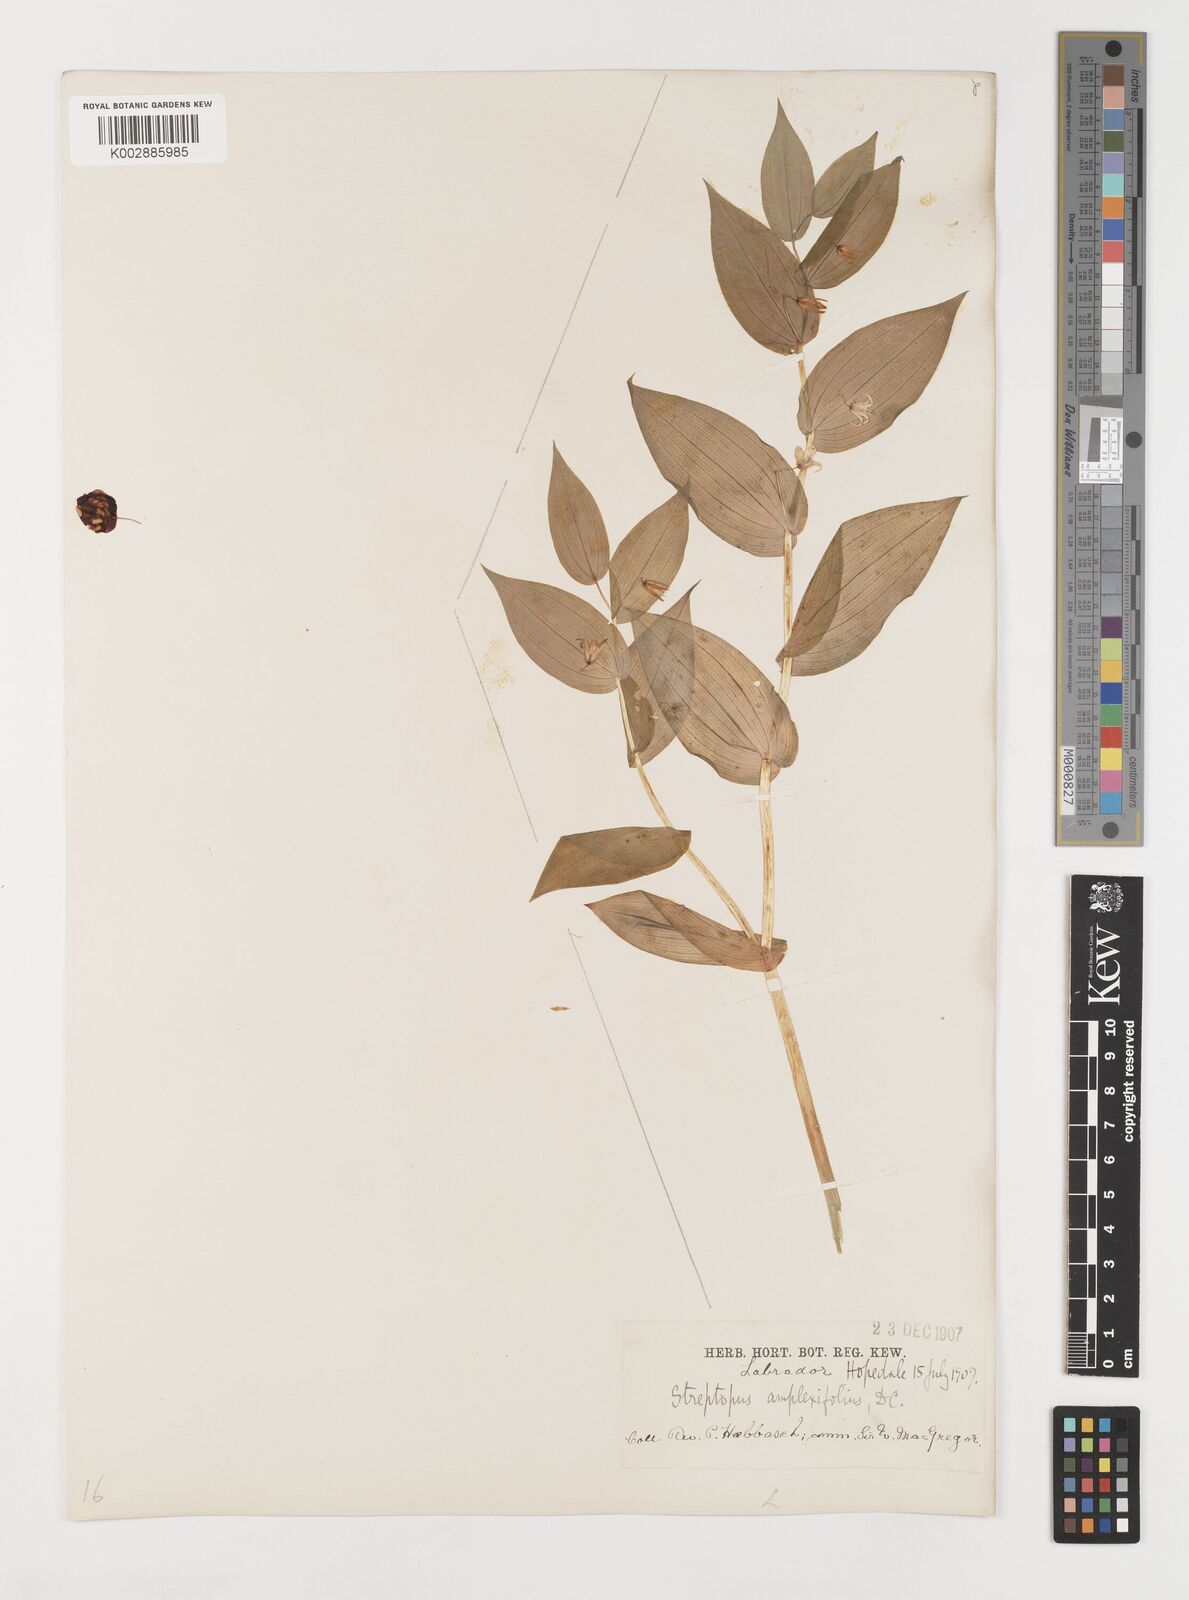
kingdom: Plantae
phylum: Tracheophyta
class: Liliopsida
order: Liliales
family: Liliaceae
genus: Streptopus
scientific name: Streptopus amplexifolius
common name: Clasp twisted stalk
